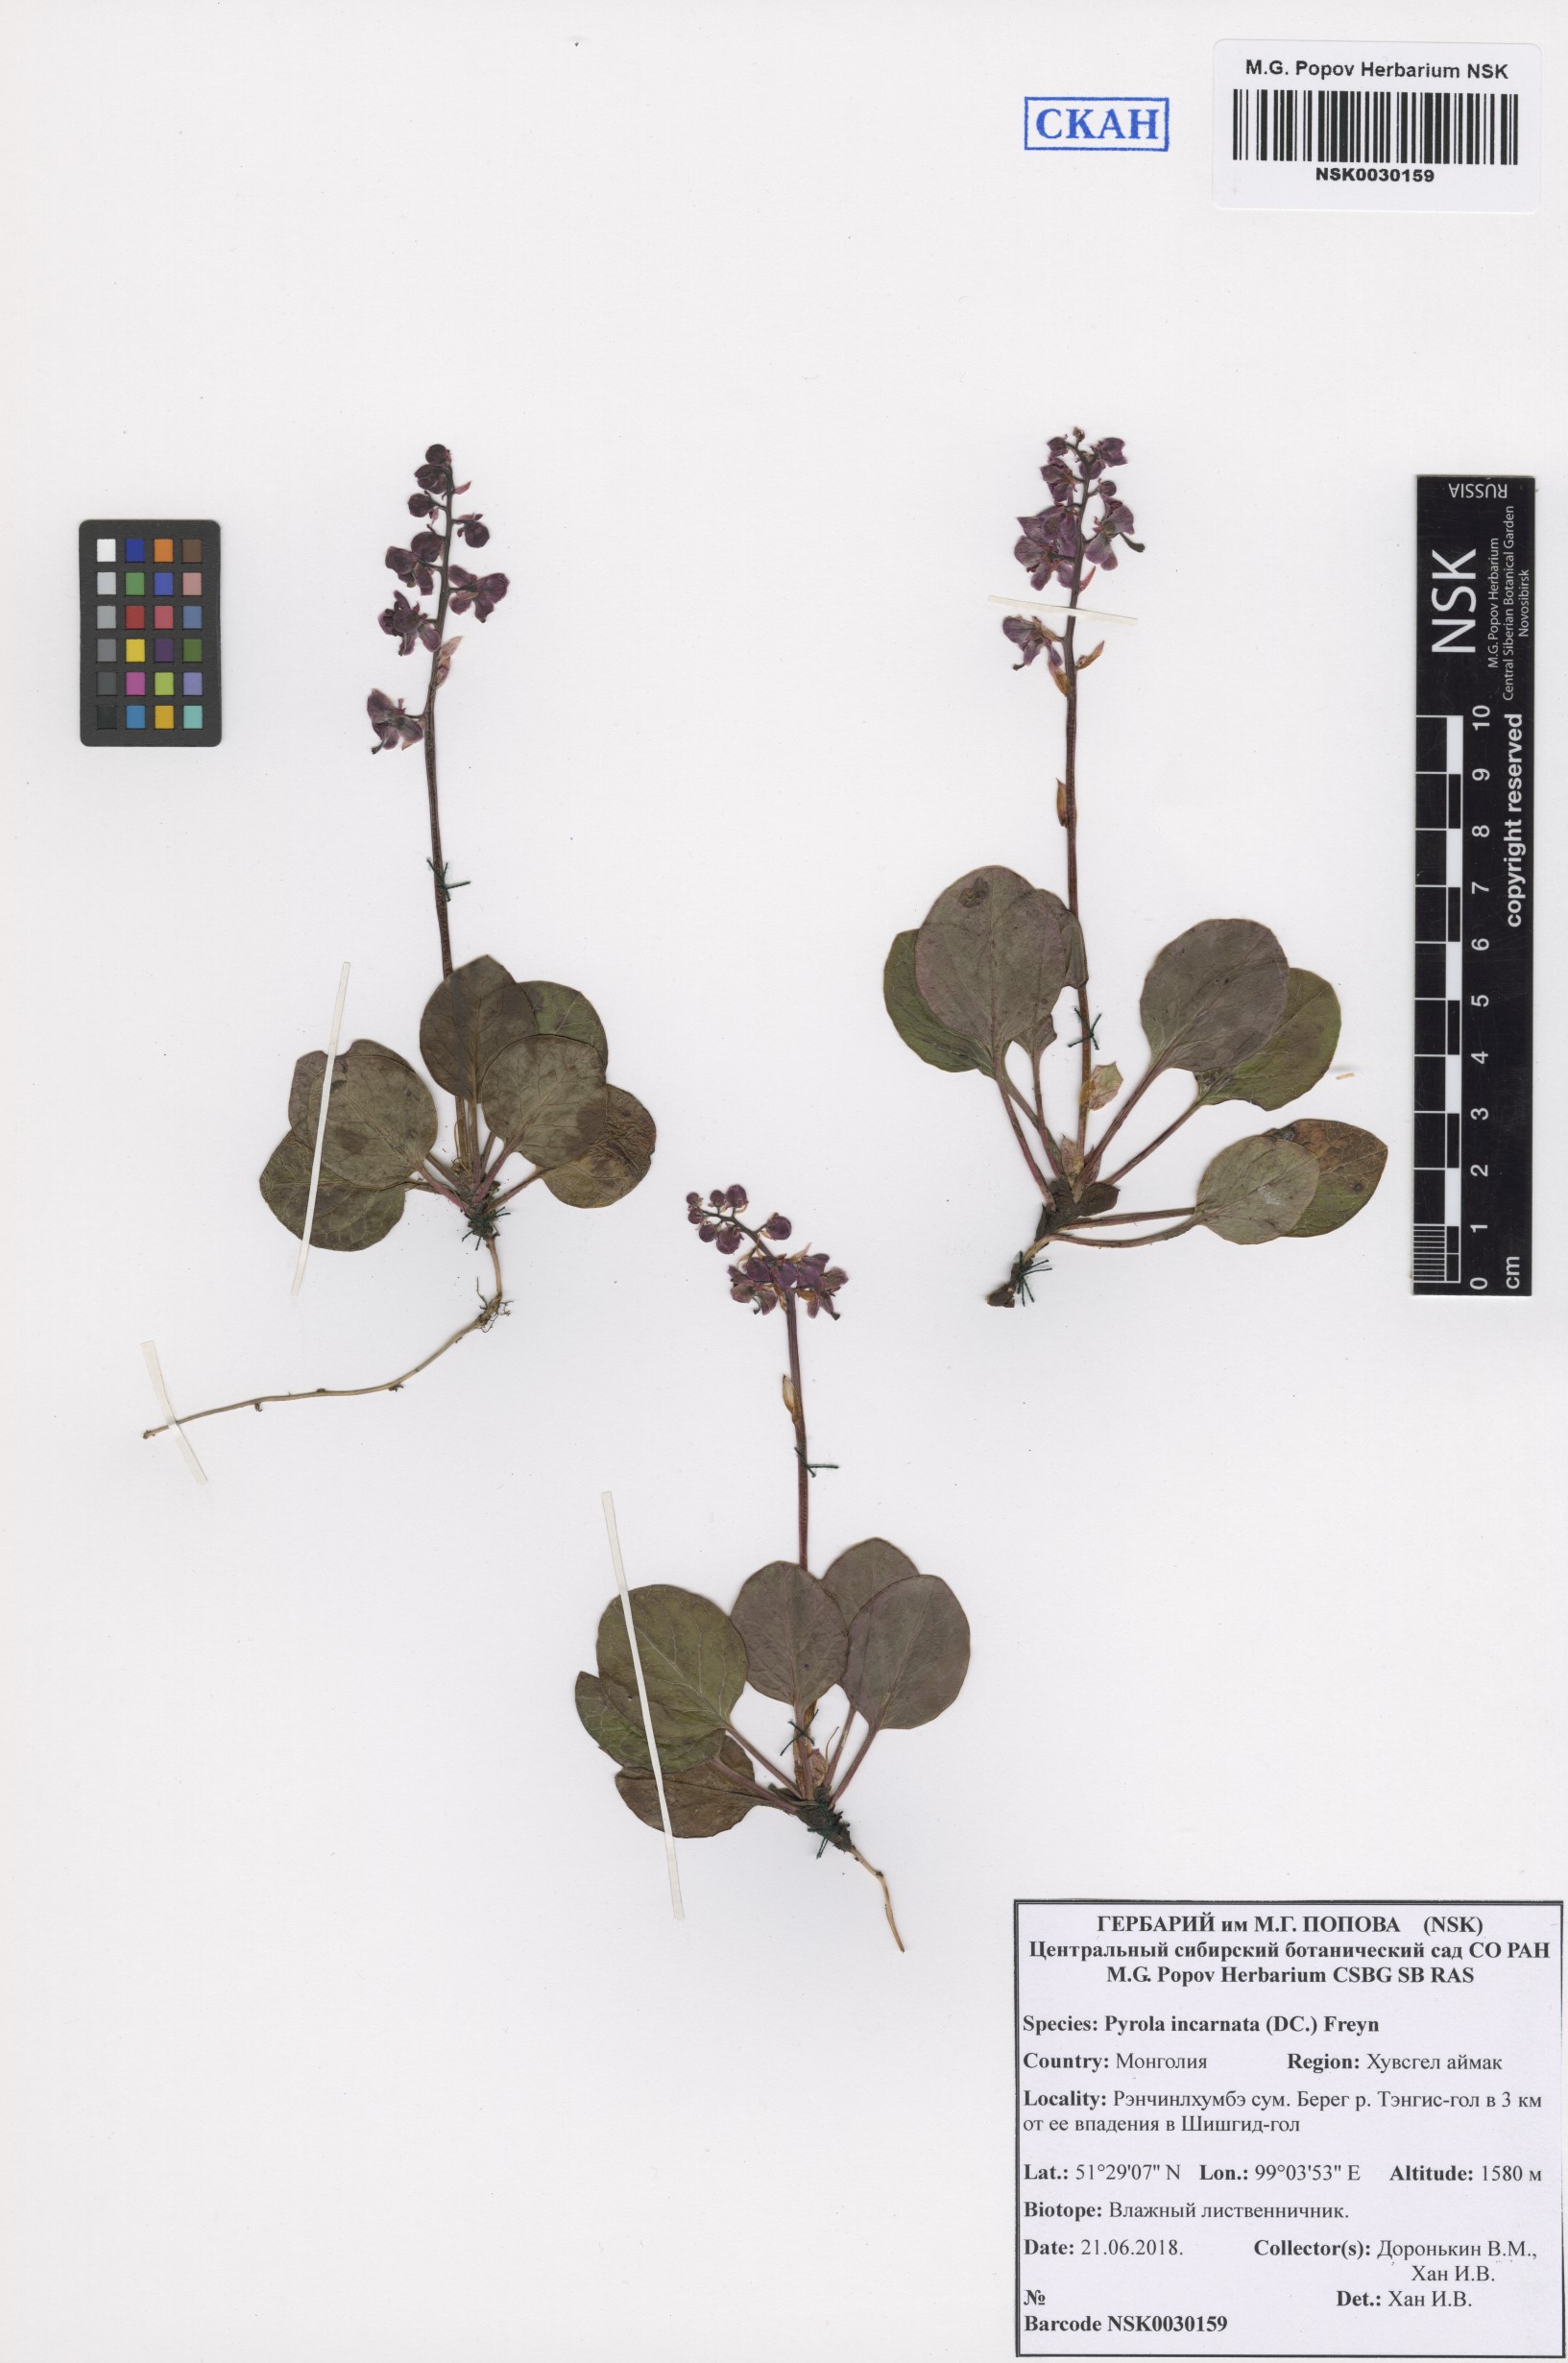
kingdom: Plantae
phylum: Tracheophyta
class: Magnoliopsida
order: Ericales
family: Ericaceae
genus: Pyrola
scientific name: Pyrola asarifolia
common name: Bog wintergreen
